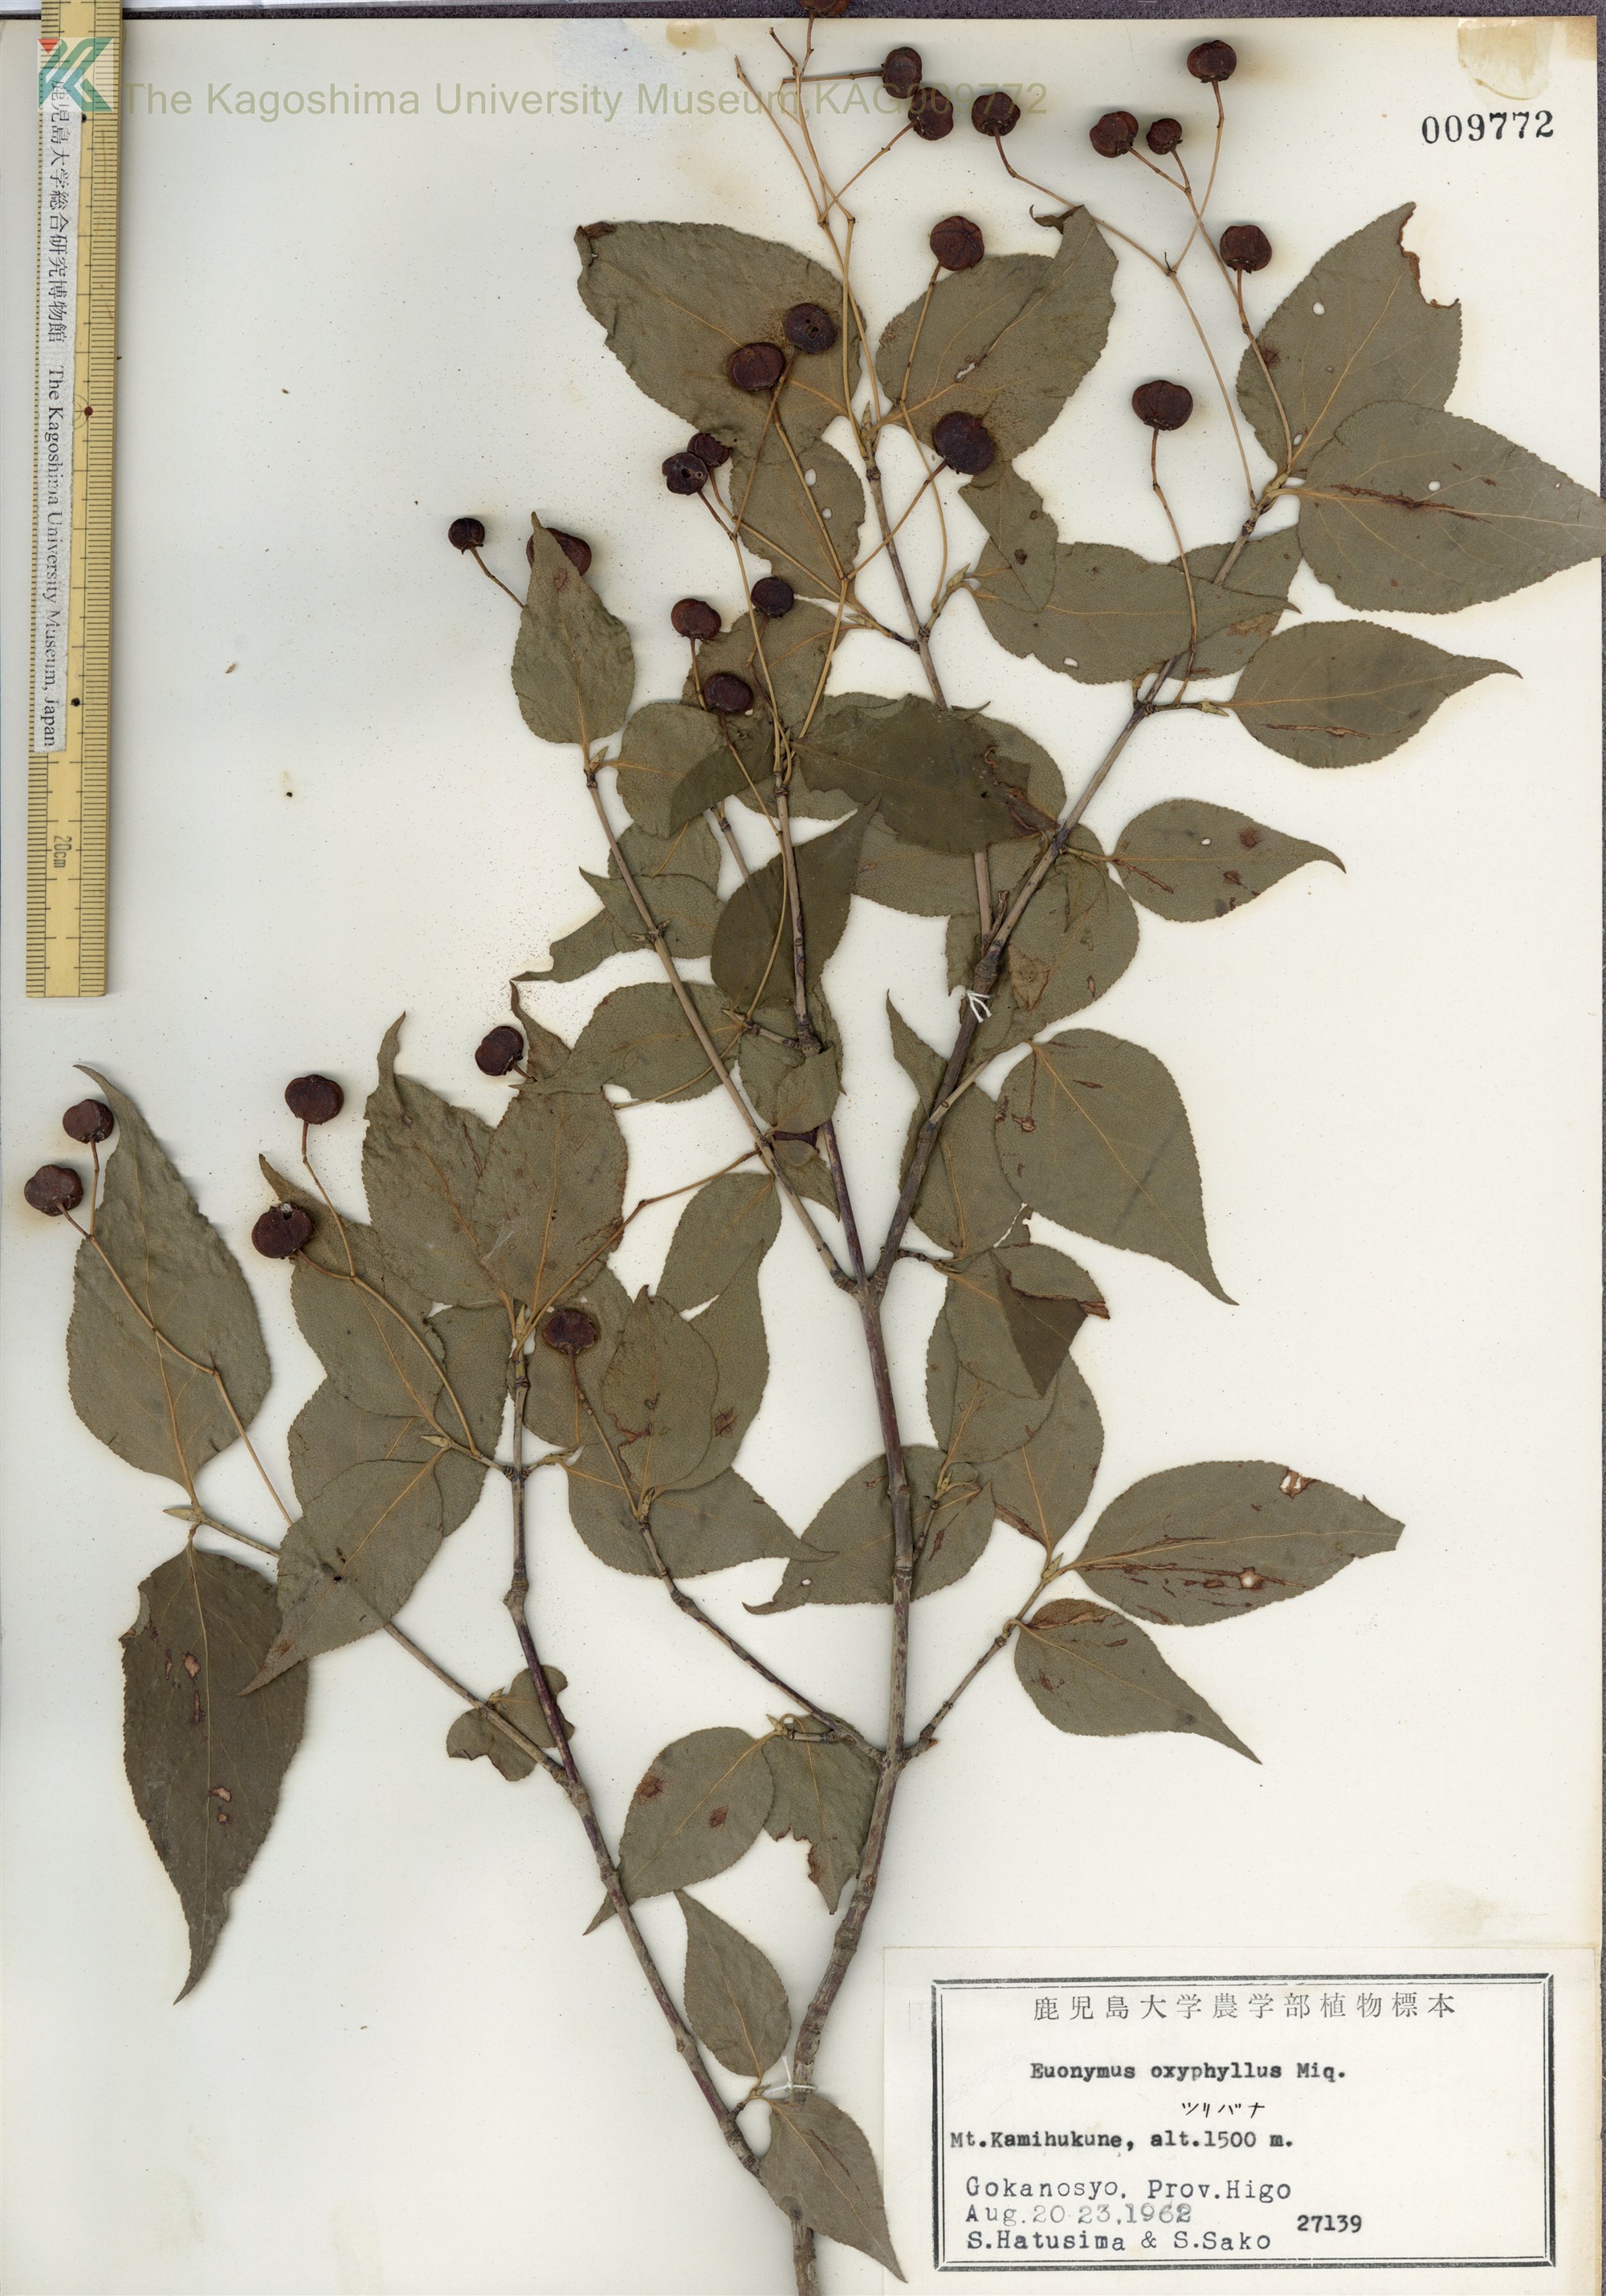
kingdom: Plantae
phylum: Tracheophyta
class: Magnoliopsida
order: Celastrales
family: Celastraceae
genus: Euonymus
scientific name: Euonymus oxyphyllus
